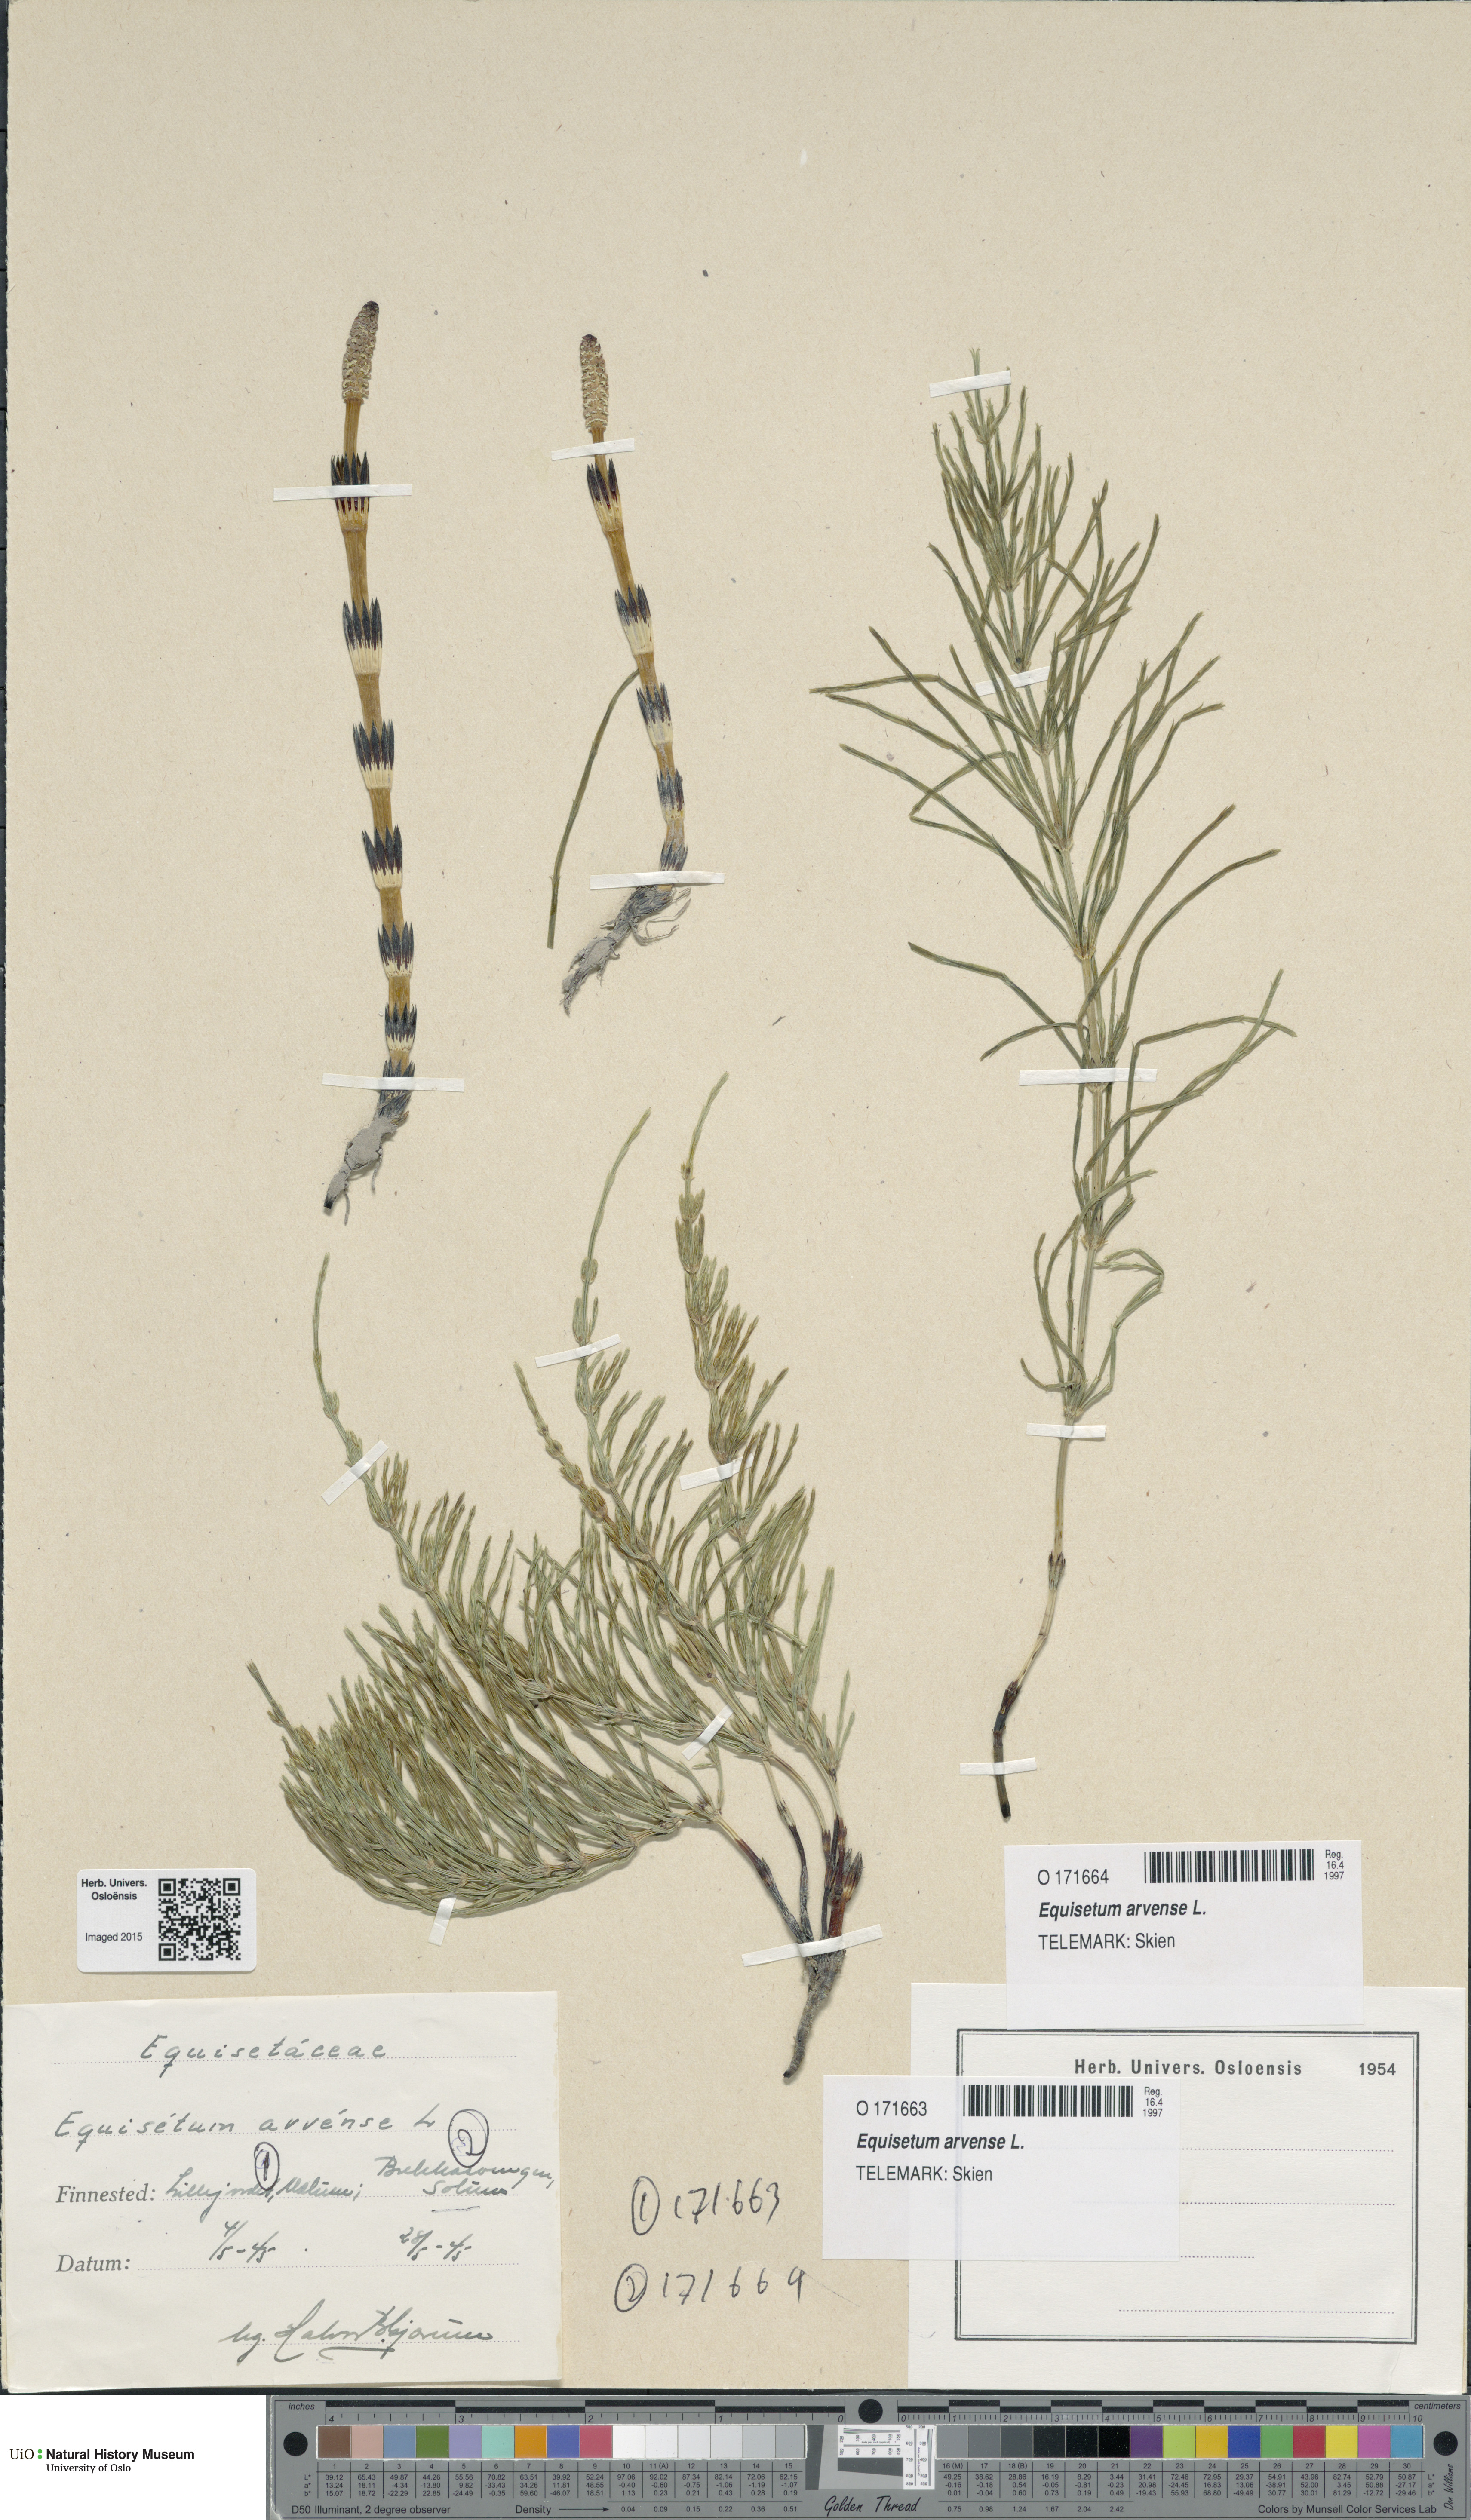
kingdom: Plantae
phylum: Tracheophyta
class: Polypodiopsida
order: Equisetales
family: Equisetaceae
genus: Equisetum
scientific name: Equisetum arvense
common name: Field horsetail
